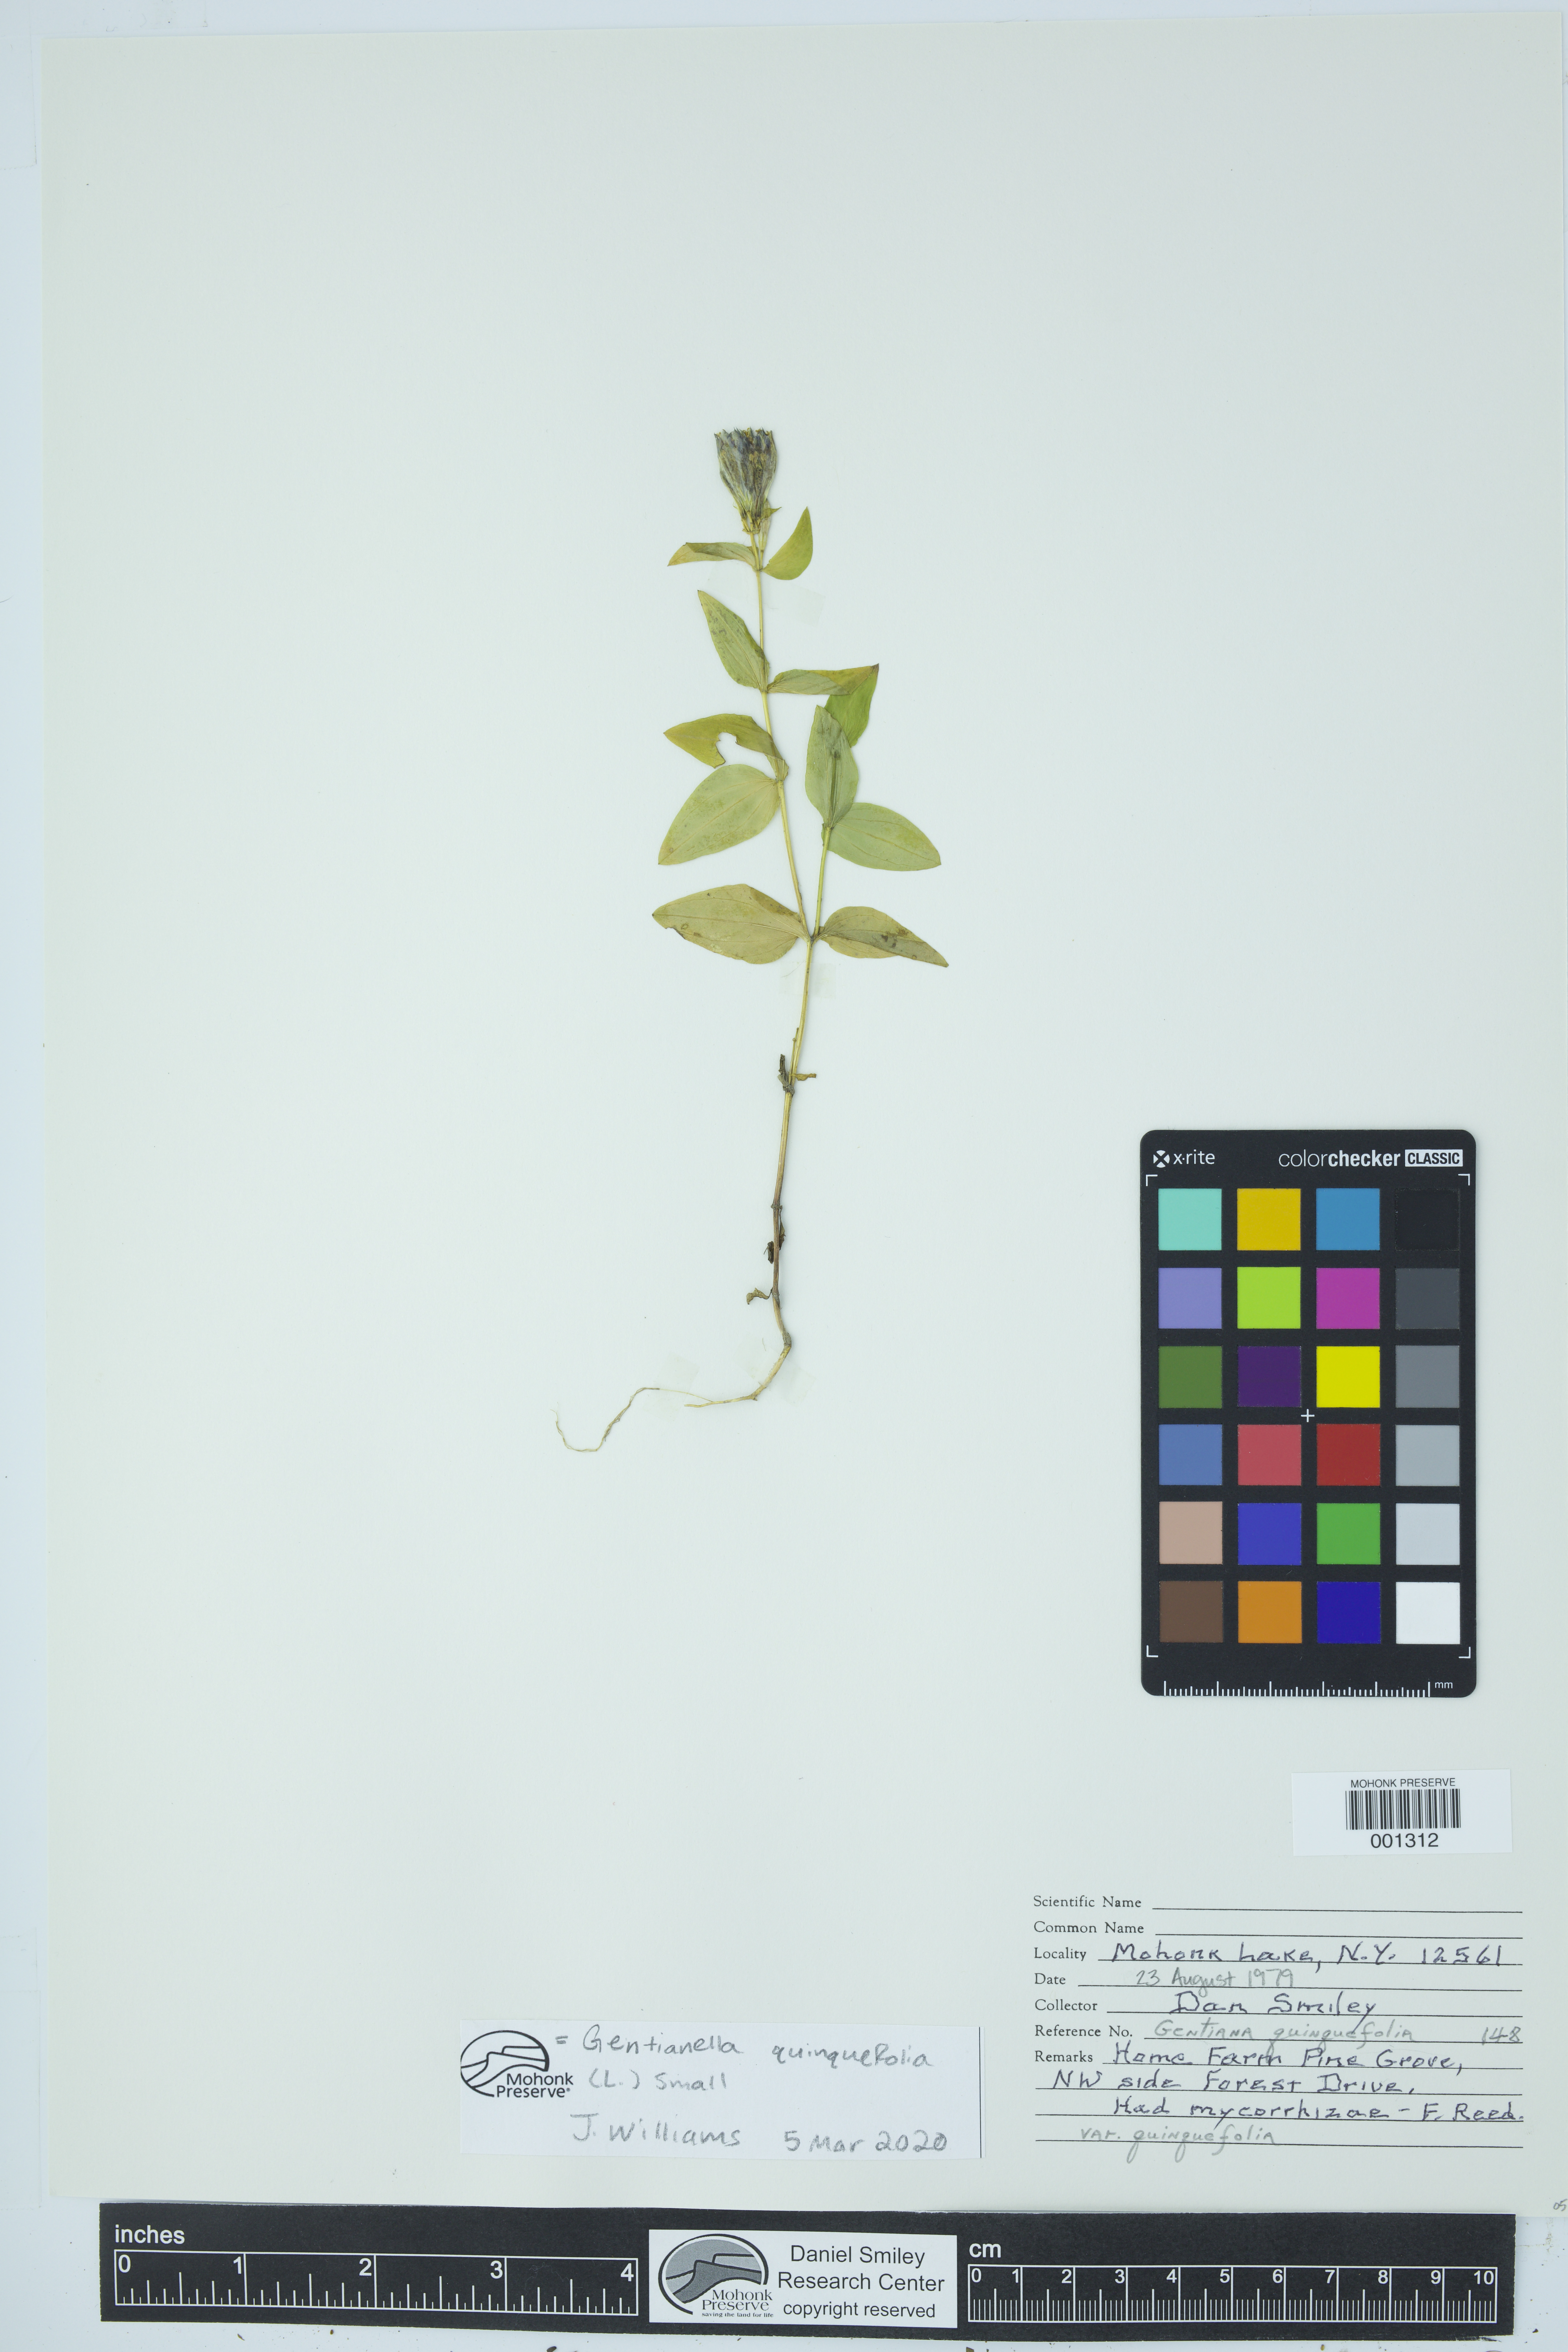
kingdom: Plantae
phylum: Tracheophyta
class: Magnoliopsida
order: Gentianales
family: Gentianaceae
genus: Gentianella
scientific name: Gentianella quinquefolia
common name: Agueweed
